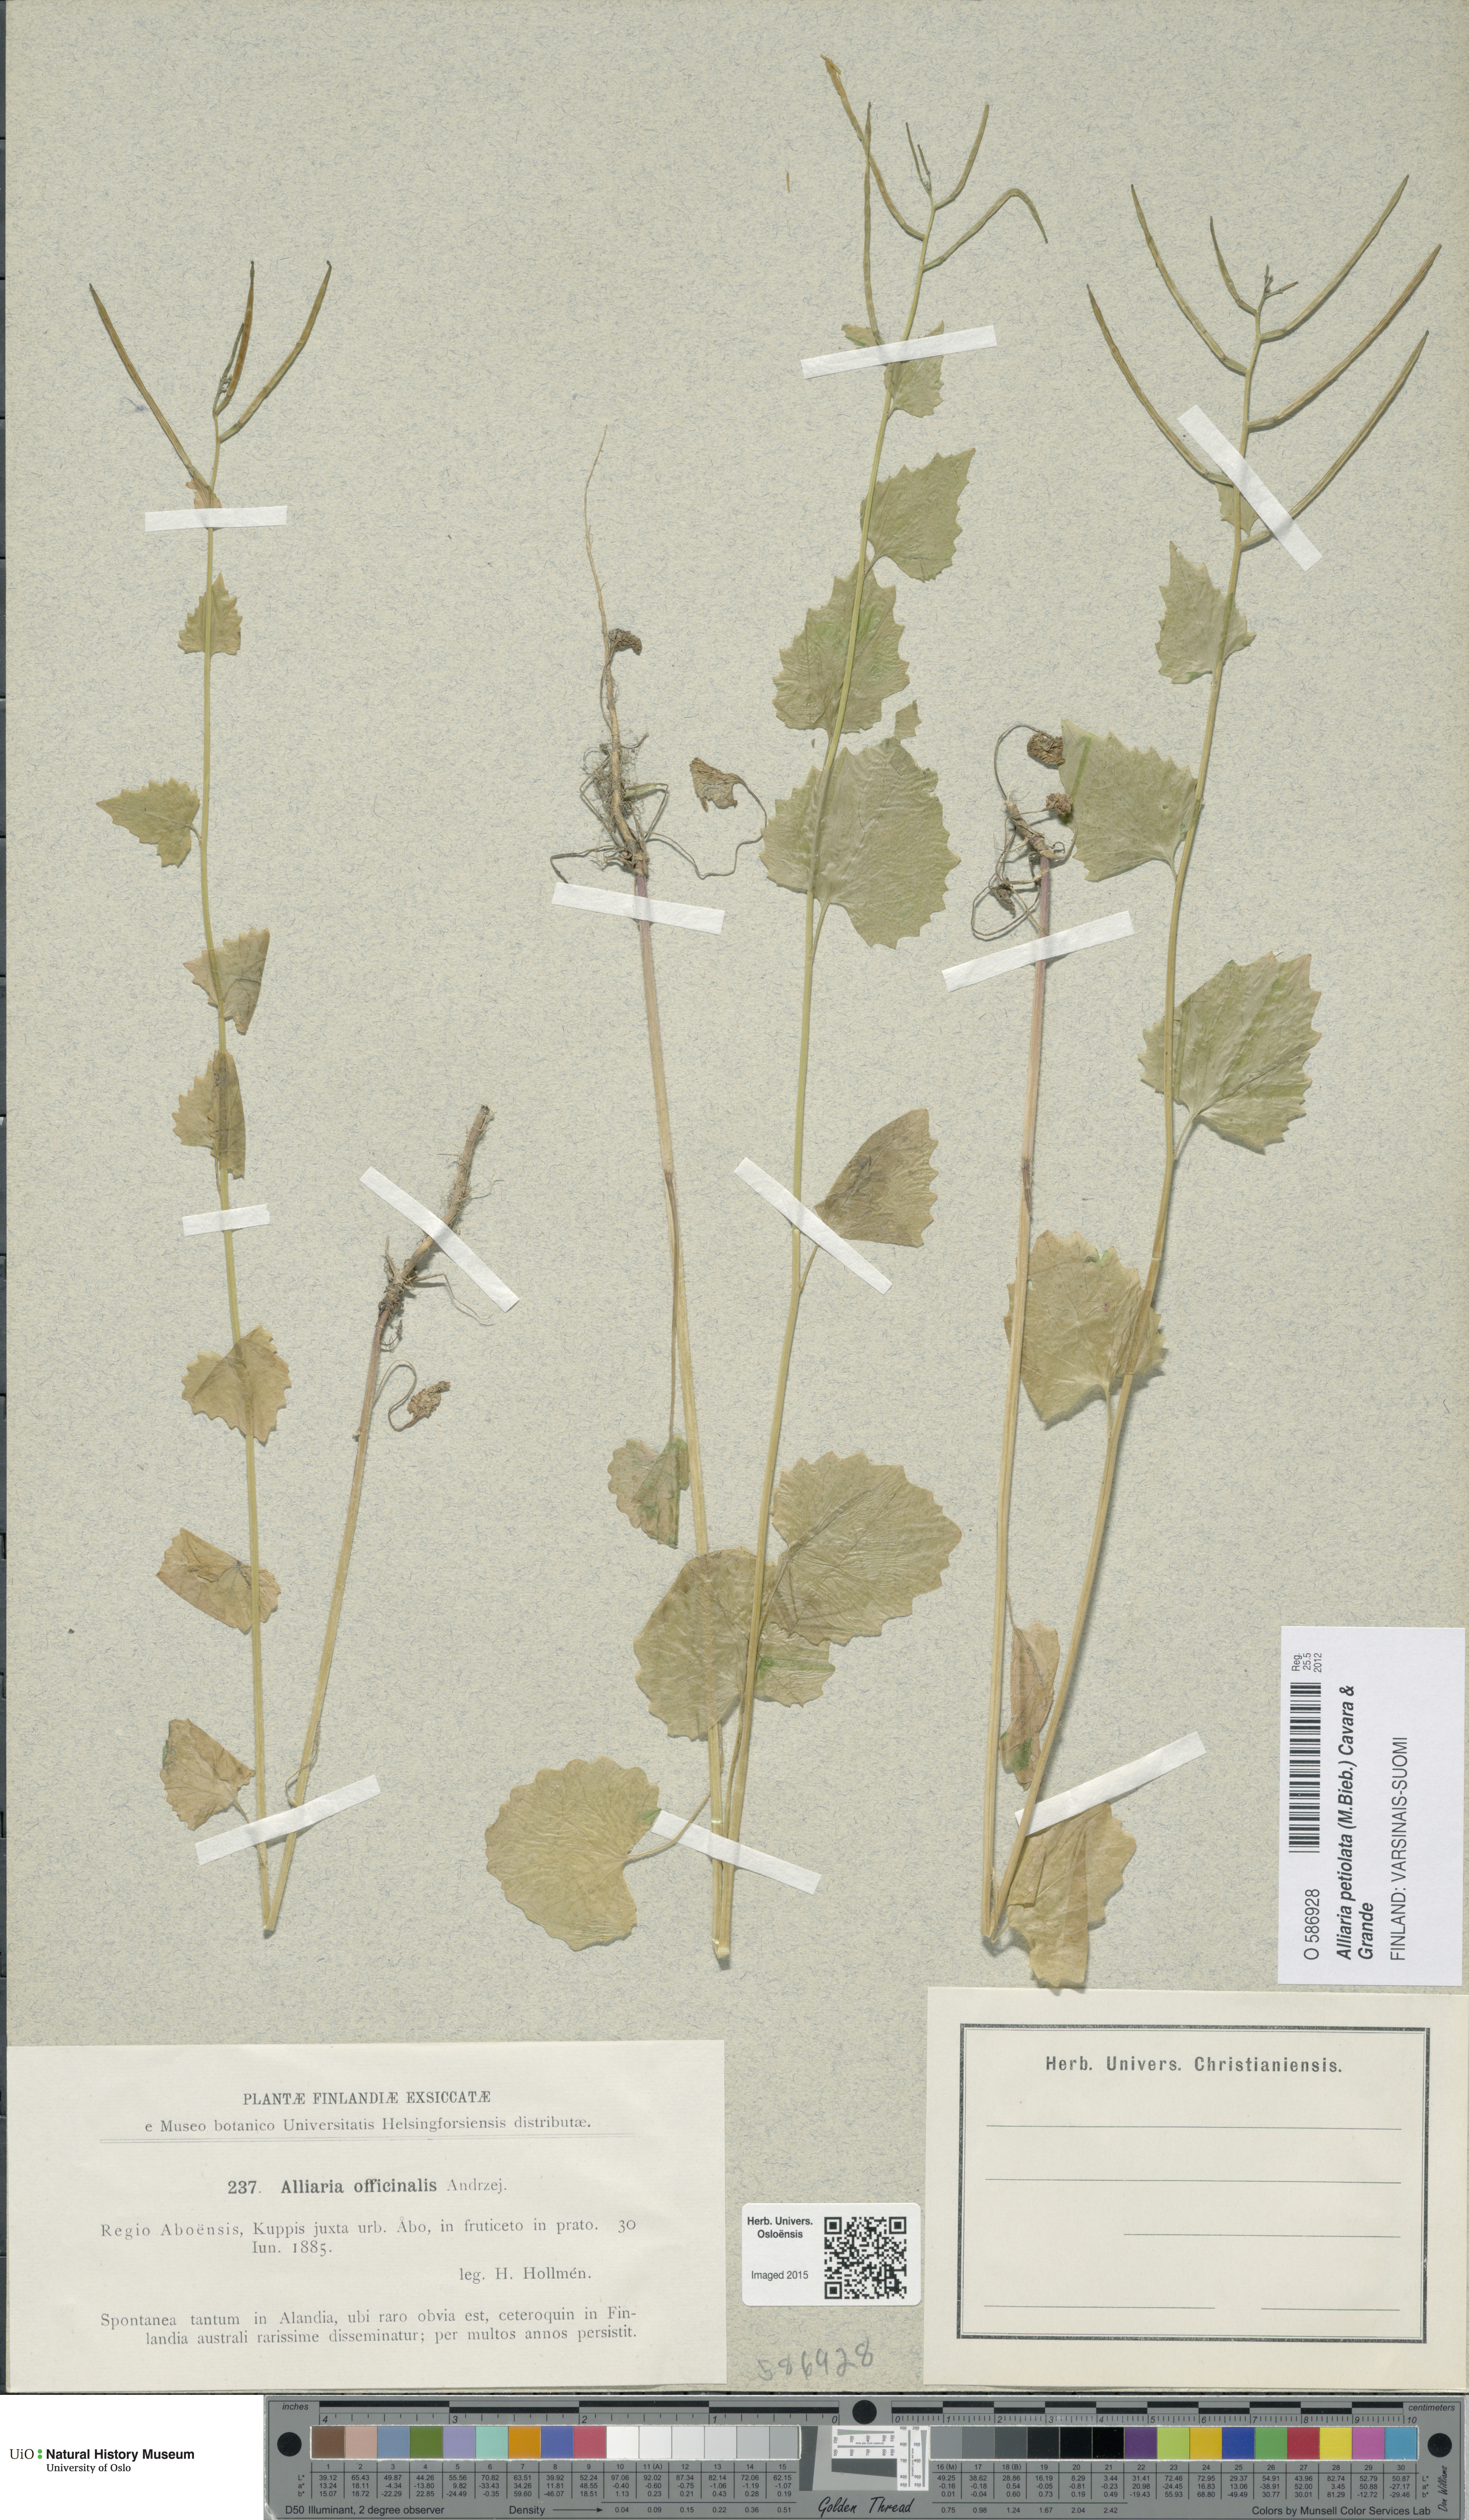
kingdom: Plantae
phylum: Tracheophyta
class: Magnoliopsida
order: Brassicales
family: Brassicaceae
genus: Alliaria
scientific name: Alliaria petiolata
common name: Garlic mustard
